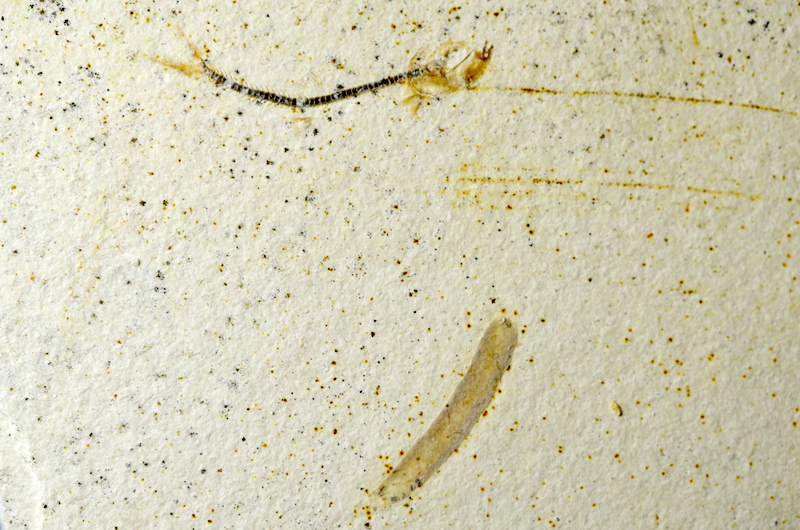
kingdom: Animalia
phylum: Chordata
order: Salmoniformes
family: Orthogonikleithridae
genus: Orthogonikleithrus
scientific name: Orthogonikleithrus hoelli
